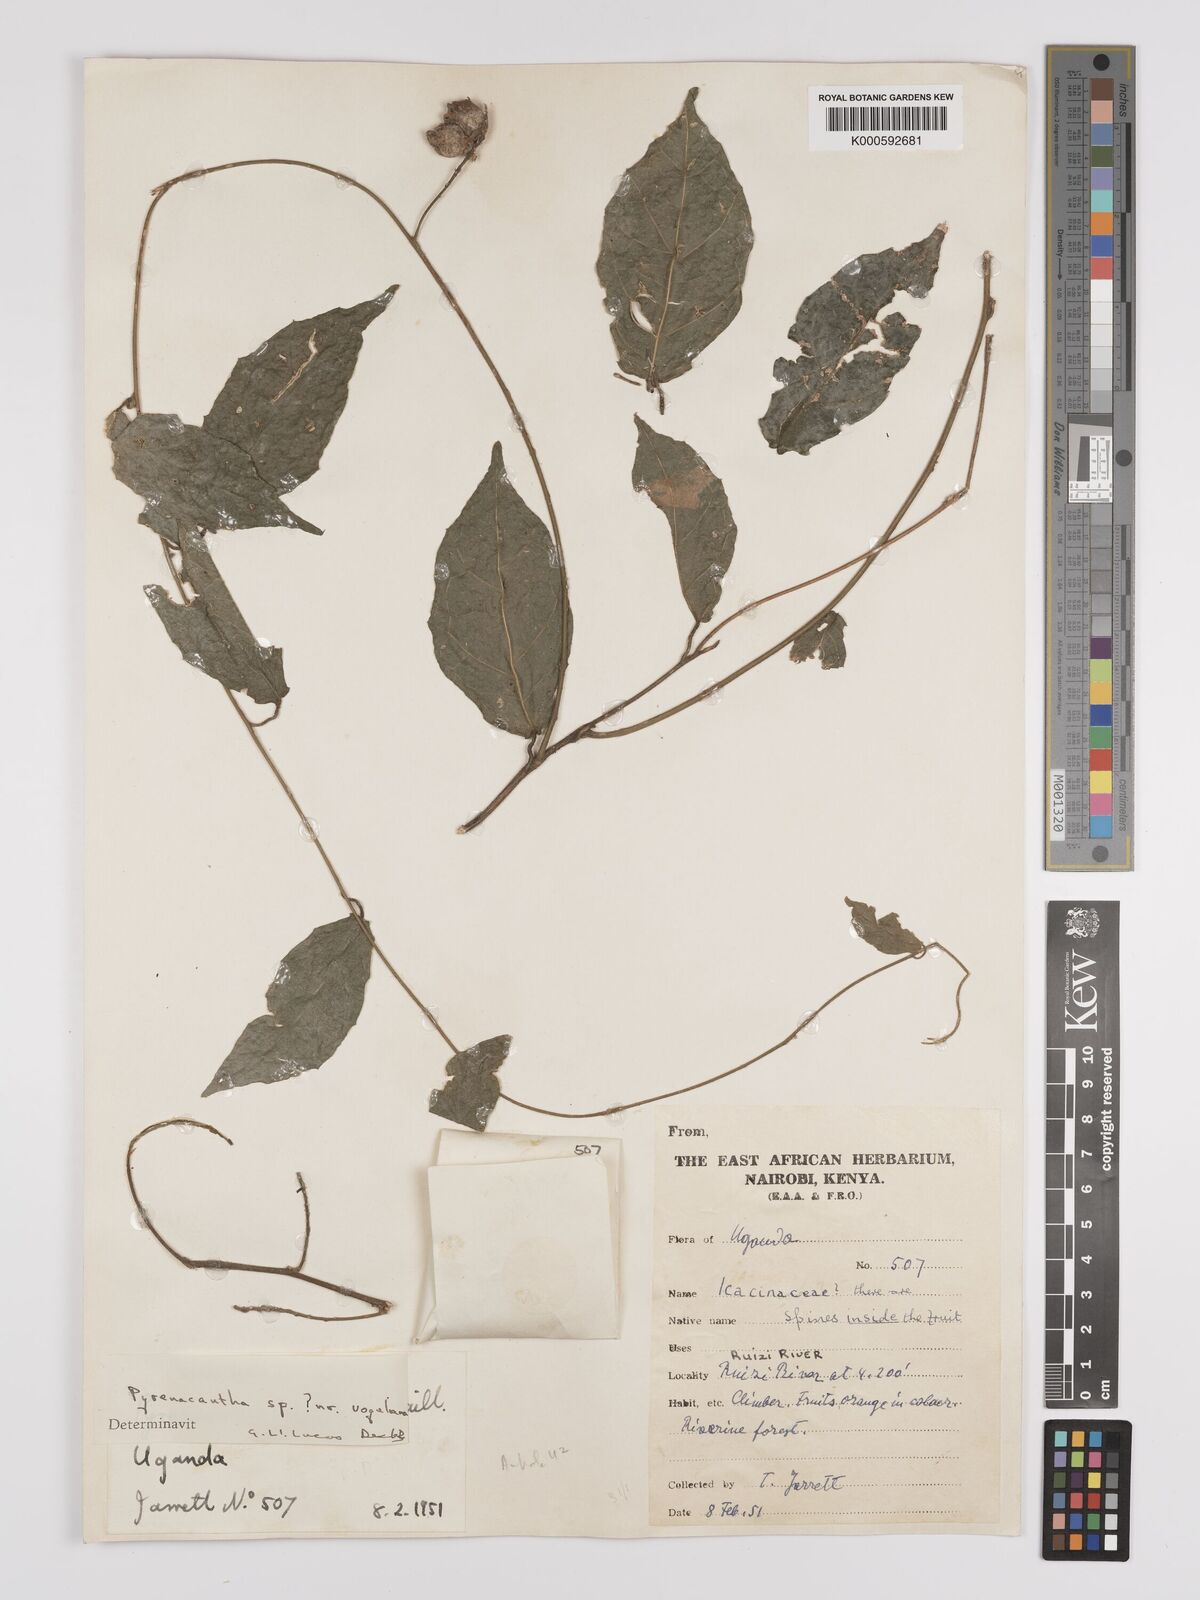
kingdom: Plantae
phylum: Tracheophyta
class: Magnoliopsida
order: Icacinales
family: Icacinaceae
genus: Pyrenacantha
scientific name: Pyrenacantha vogeliana
